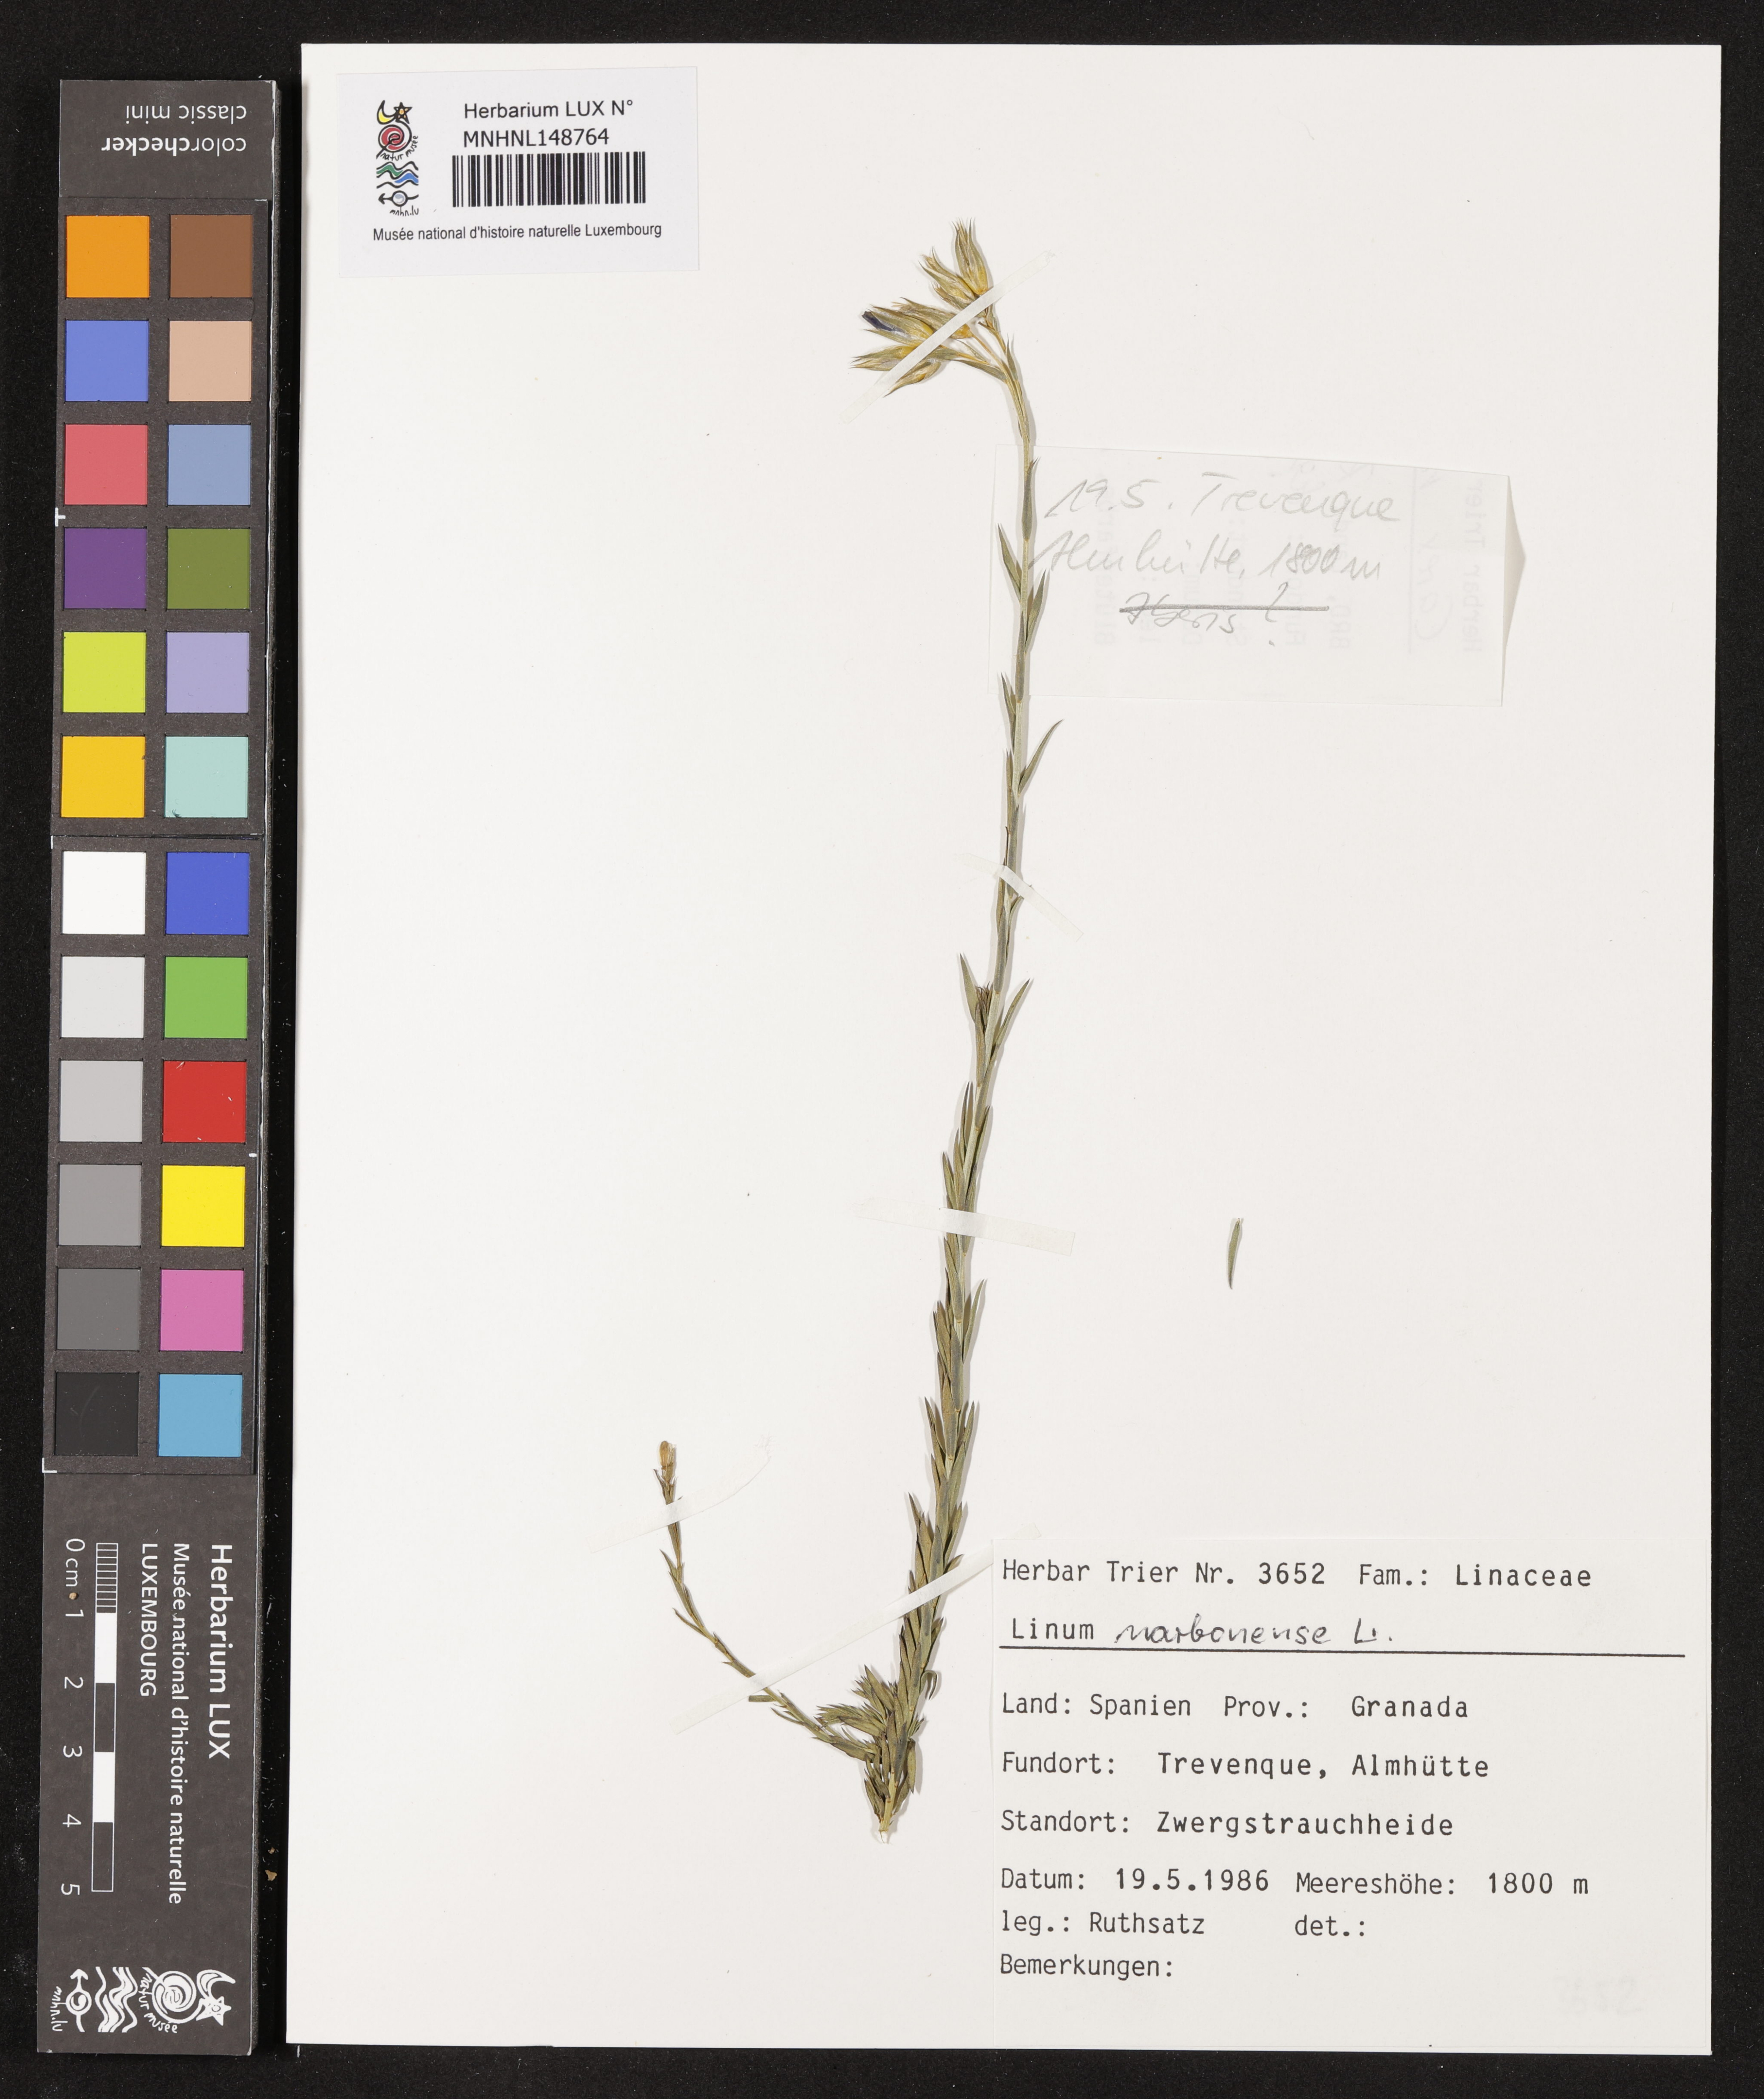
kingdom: Plantae
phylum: Tracheophyta
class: Magnoliopsida
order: Malpighiales
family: Linaceae
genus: Linum
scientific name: Linum narbonense
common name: Flax
